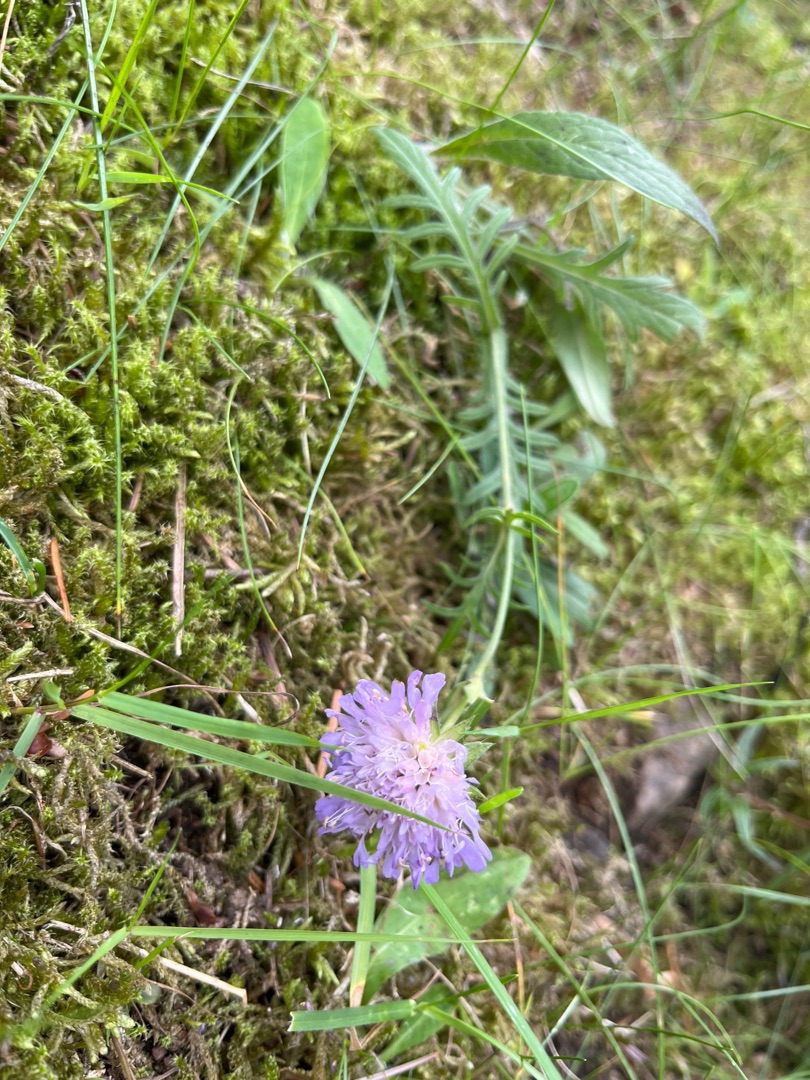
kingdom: Plantae
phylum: Tracheophyta
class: Magnoliopsida
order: Dipsacales
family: Caprifoliaceae
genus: Knautia
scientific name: Knautia arvensis
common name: Blåhat
